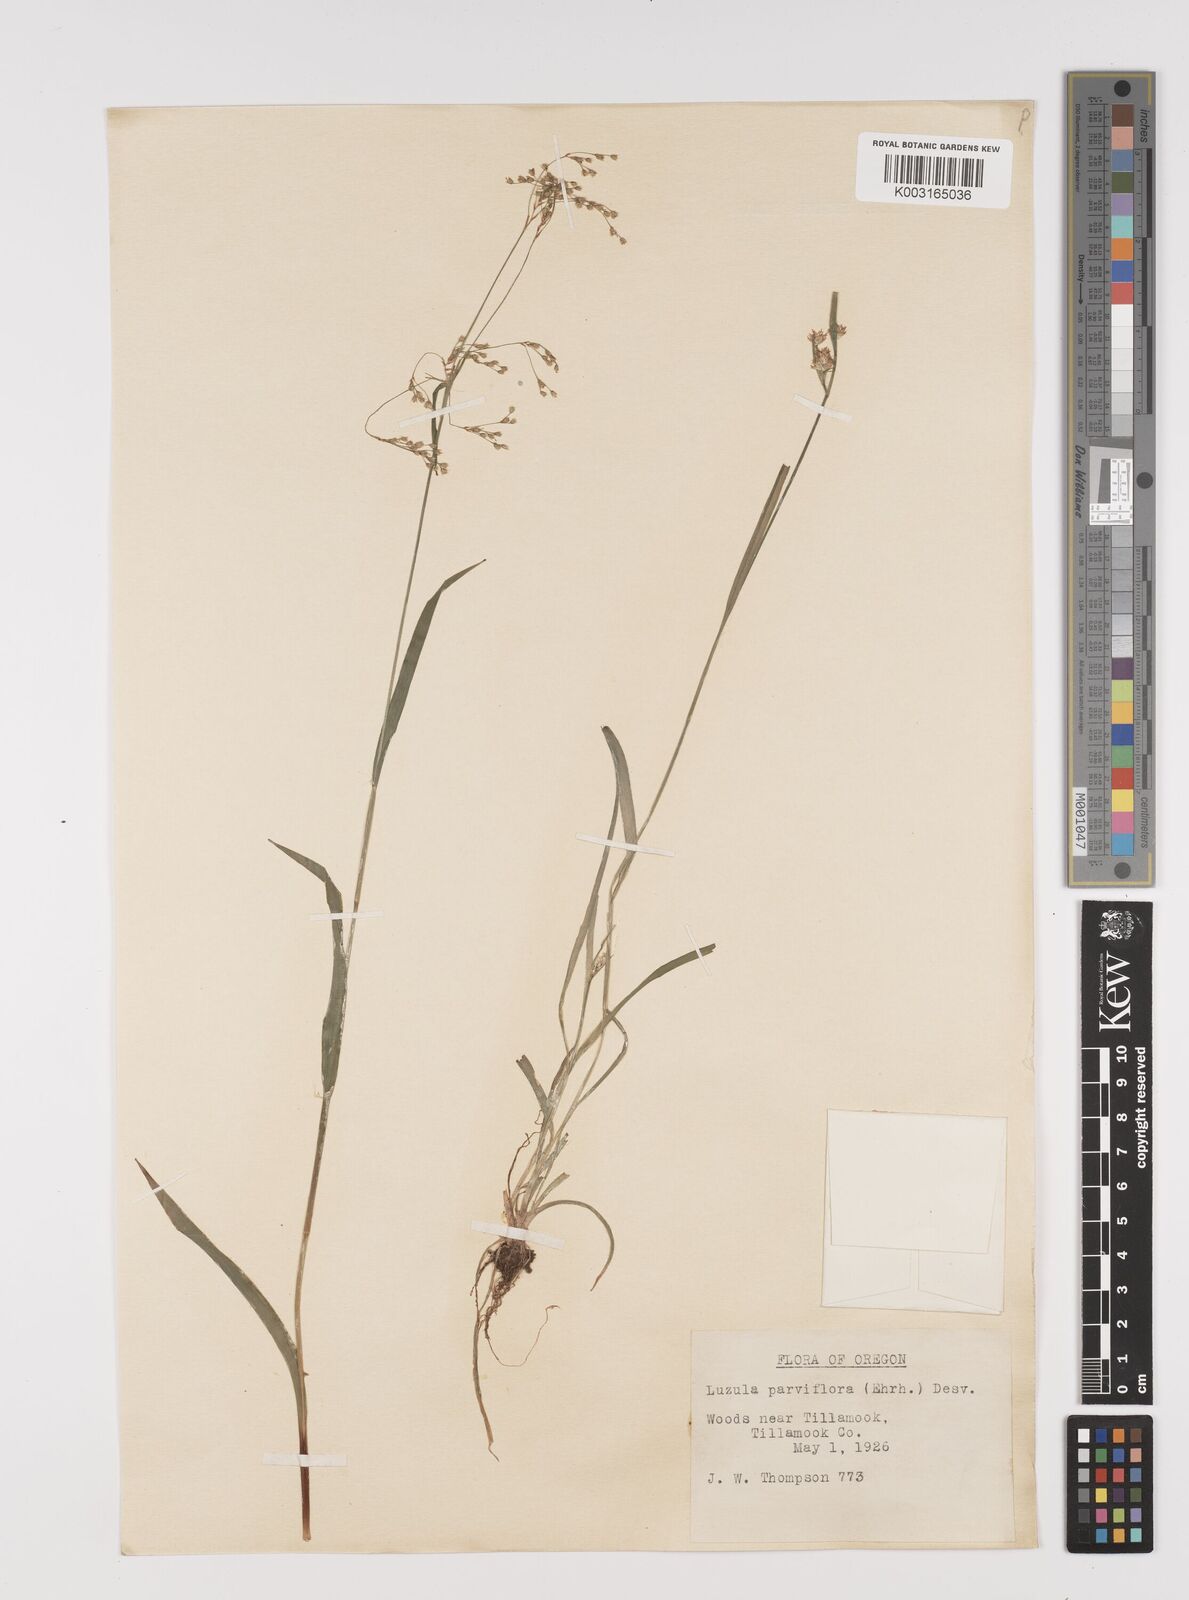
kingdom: Plantae
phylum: Tracheophyta
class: Liliopsida
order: Poales
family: Juncaceae
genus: Luzula
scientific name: Luzula parviflora
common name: Millet woodrush
